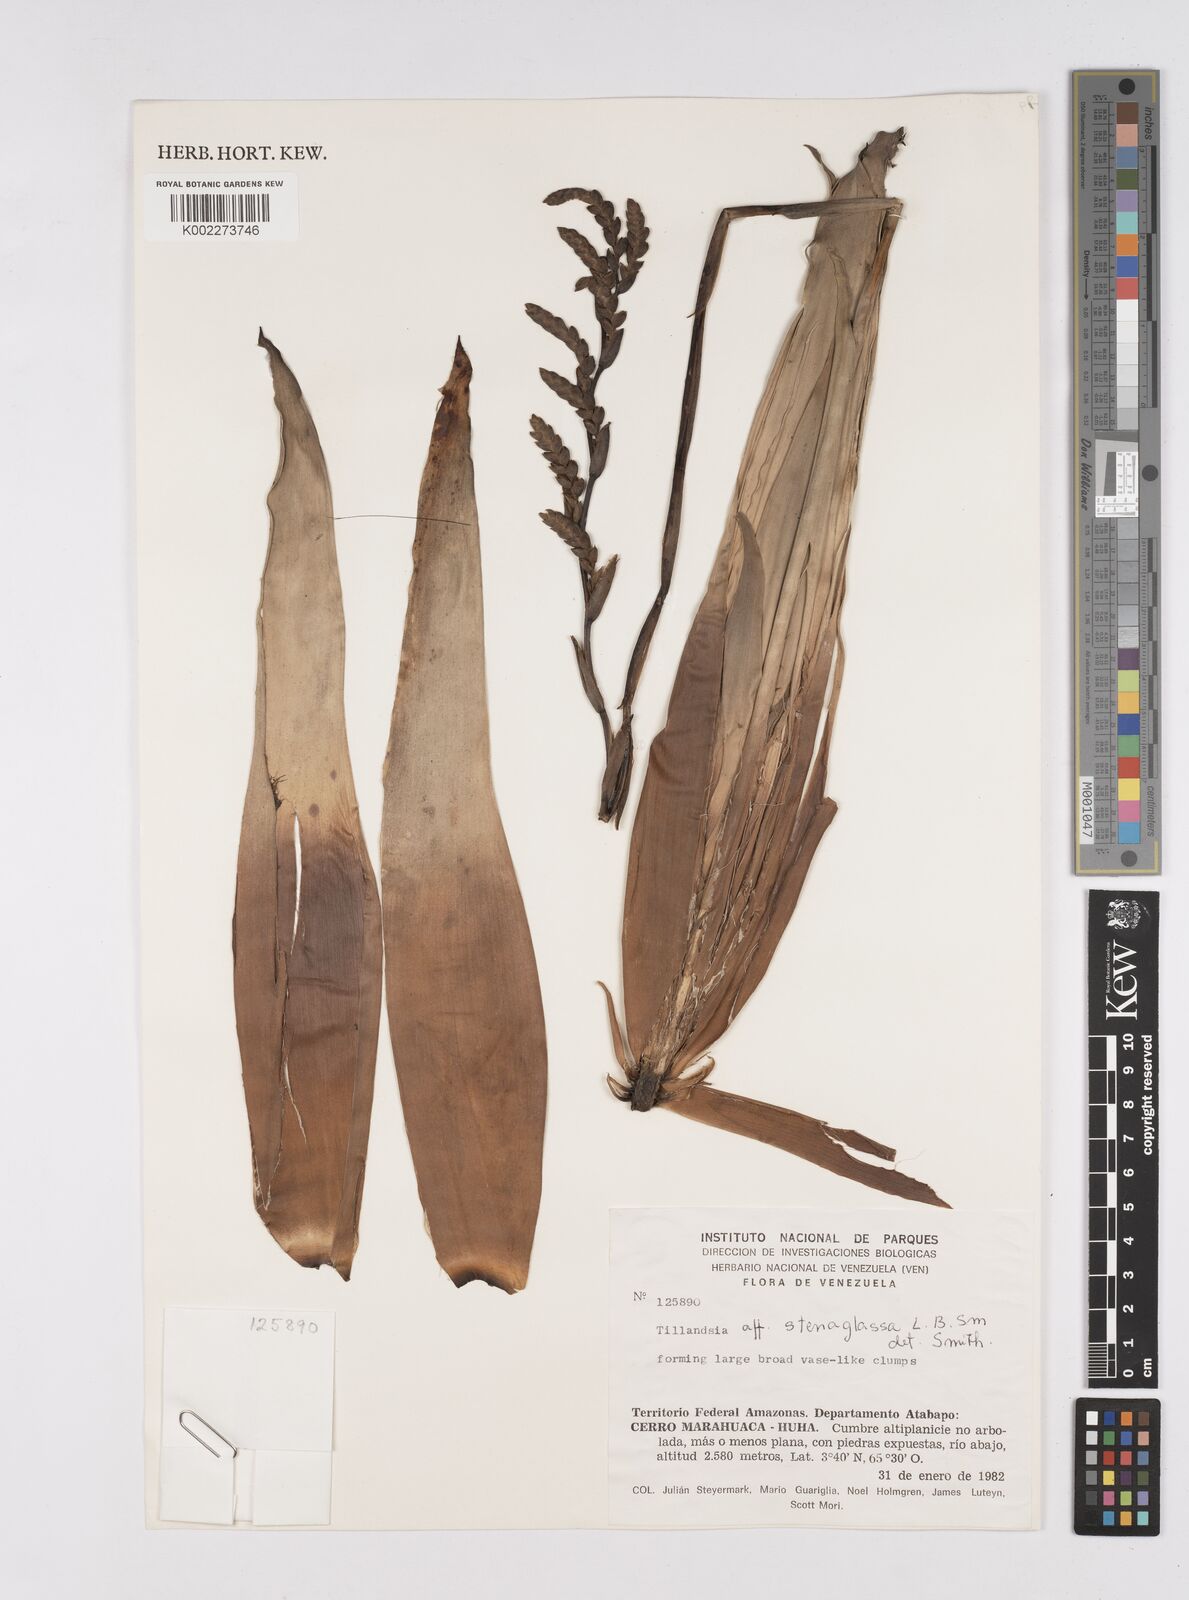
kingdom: Plantae
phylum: Tracheophyta
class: Liliopsida
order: Poales
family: Bromeliaceae
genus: Racinaea
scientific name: Racinaea spiculosa
